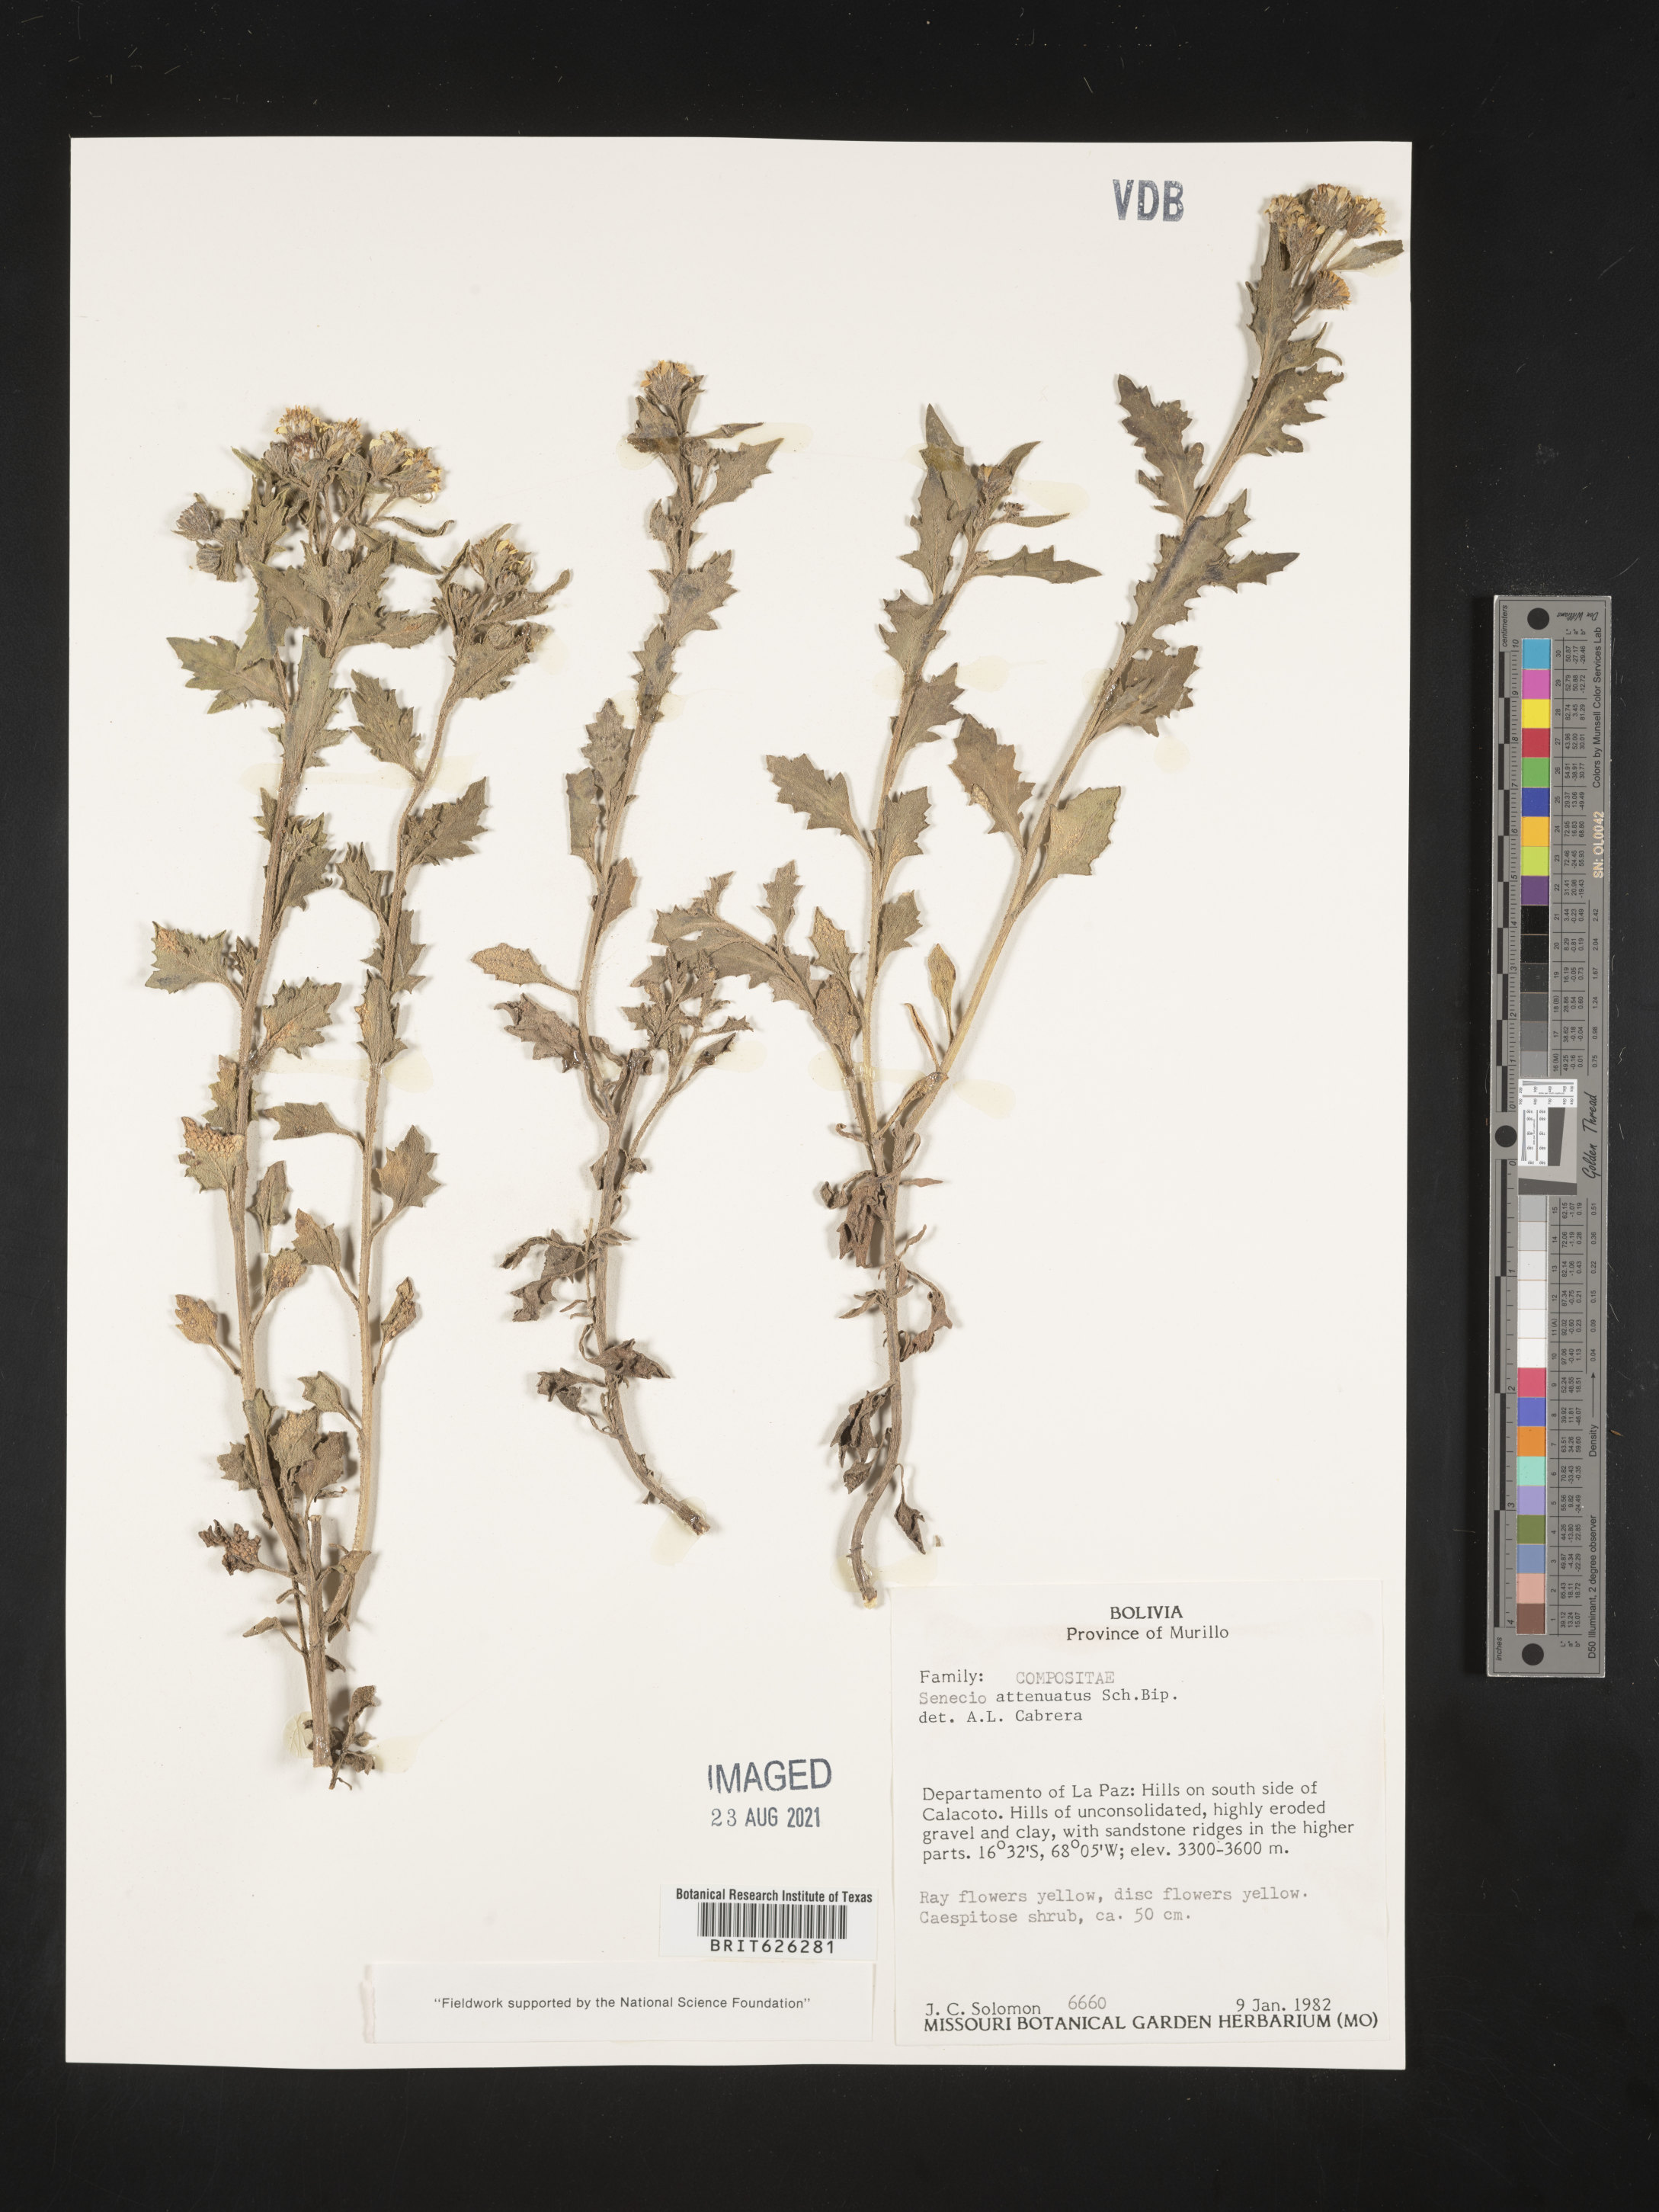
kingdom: Plantae
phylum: Tracheophyta
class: Magnoliopsida
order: Asterales
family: Asteraceae
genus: Senecio
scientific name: Senecio attenuatus
